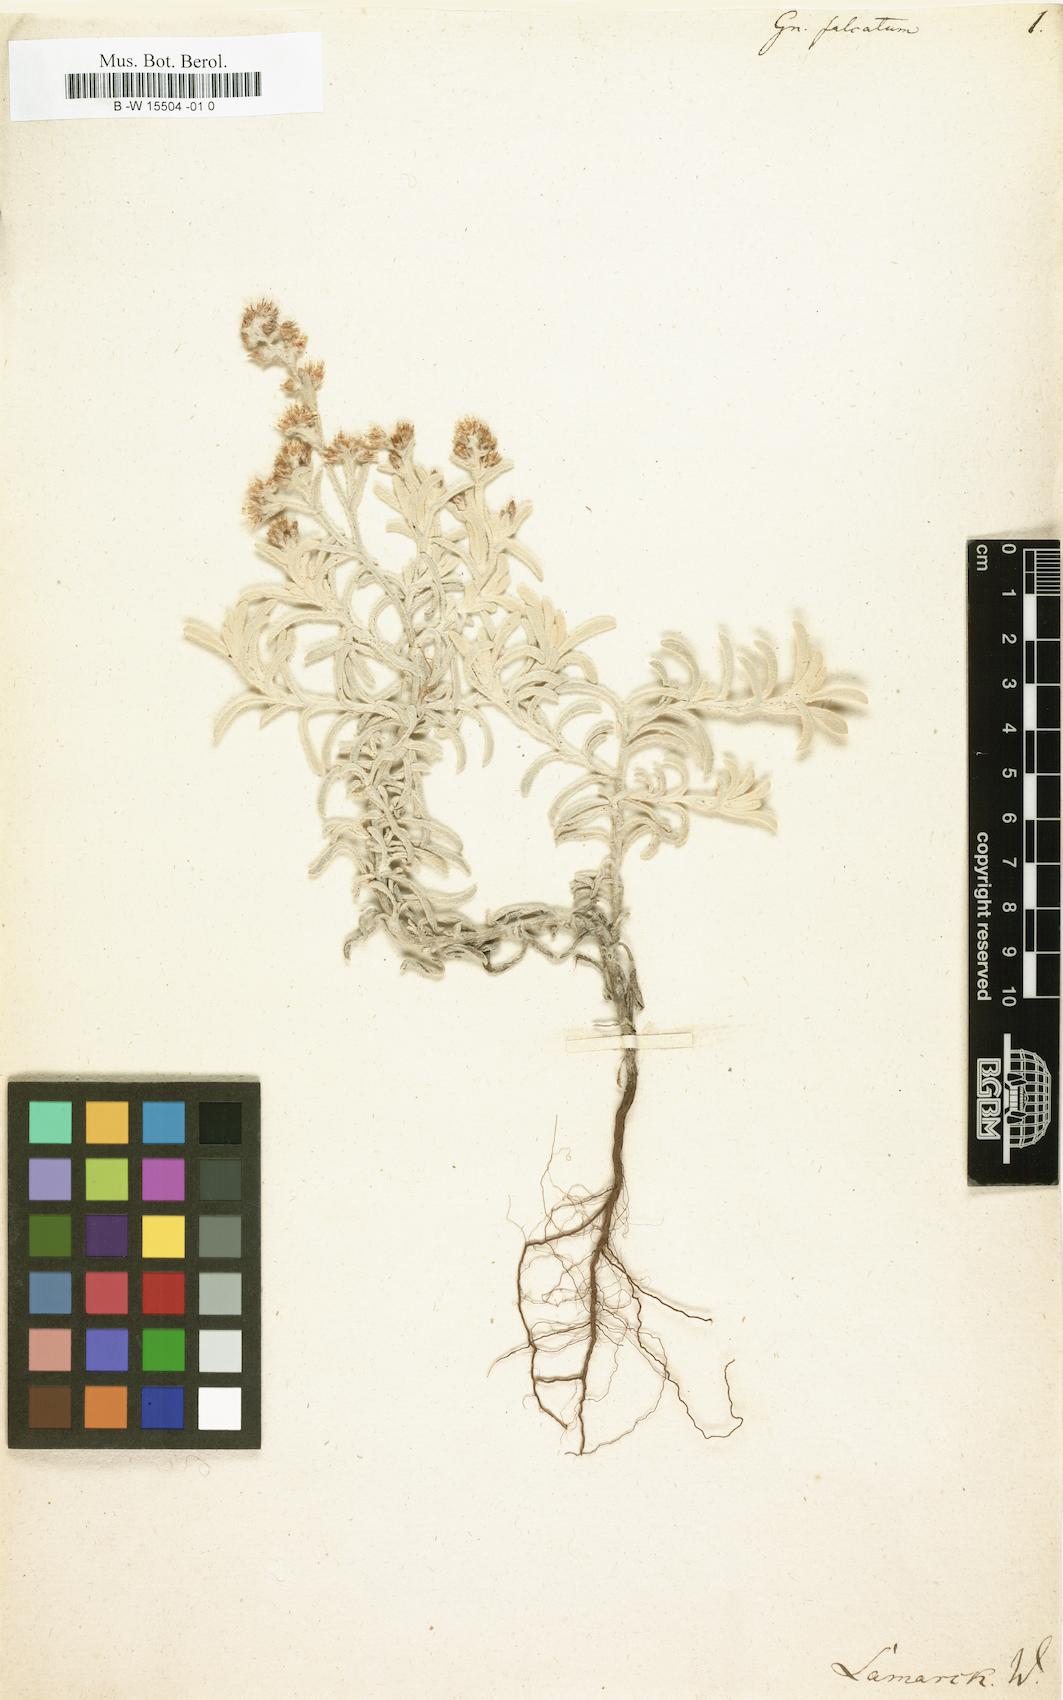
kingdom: Plantae
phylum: Tracheophyta
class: Magnoliopsida
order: Asterales
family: Asteraceae
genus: Gamochaeta
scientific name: Gamochaeta falcata
